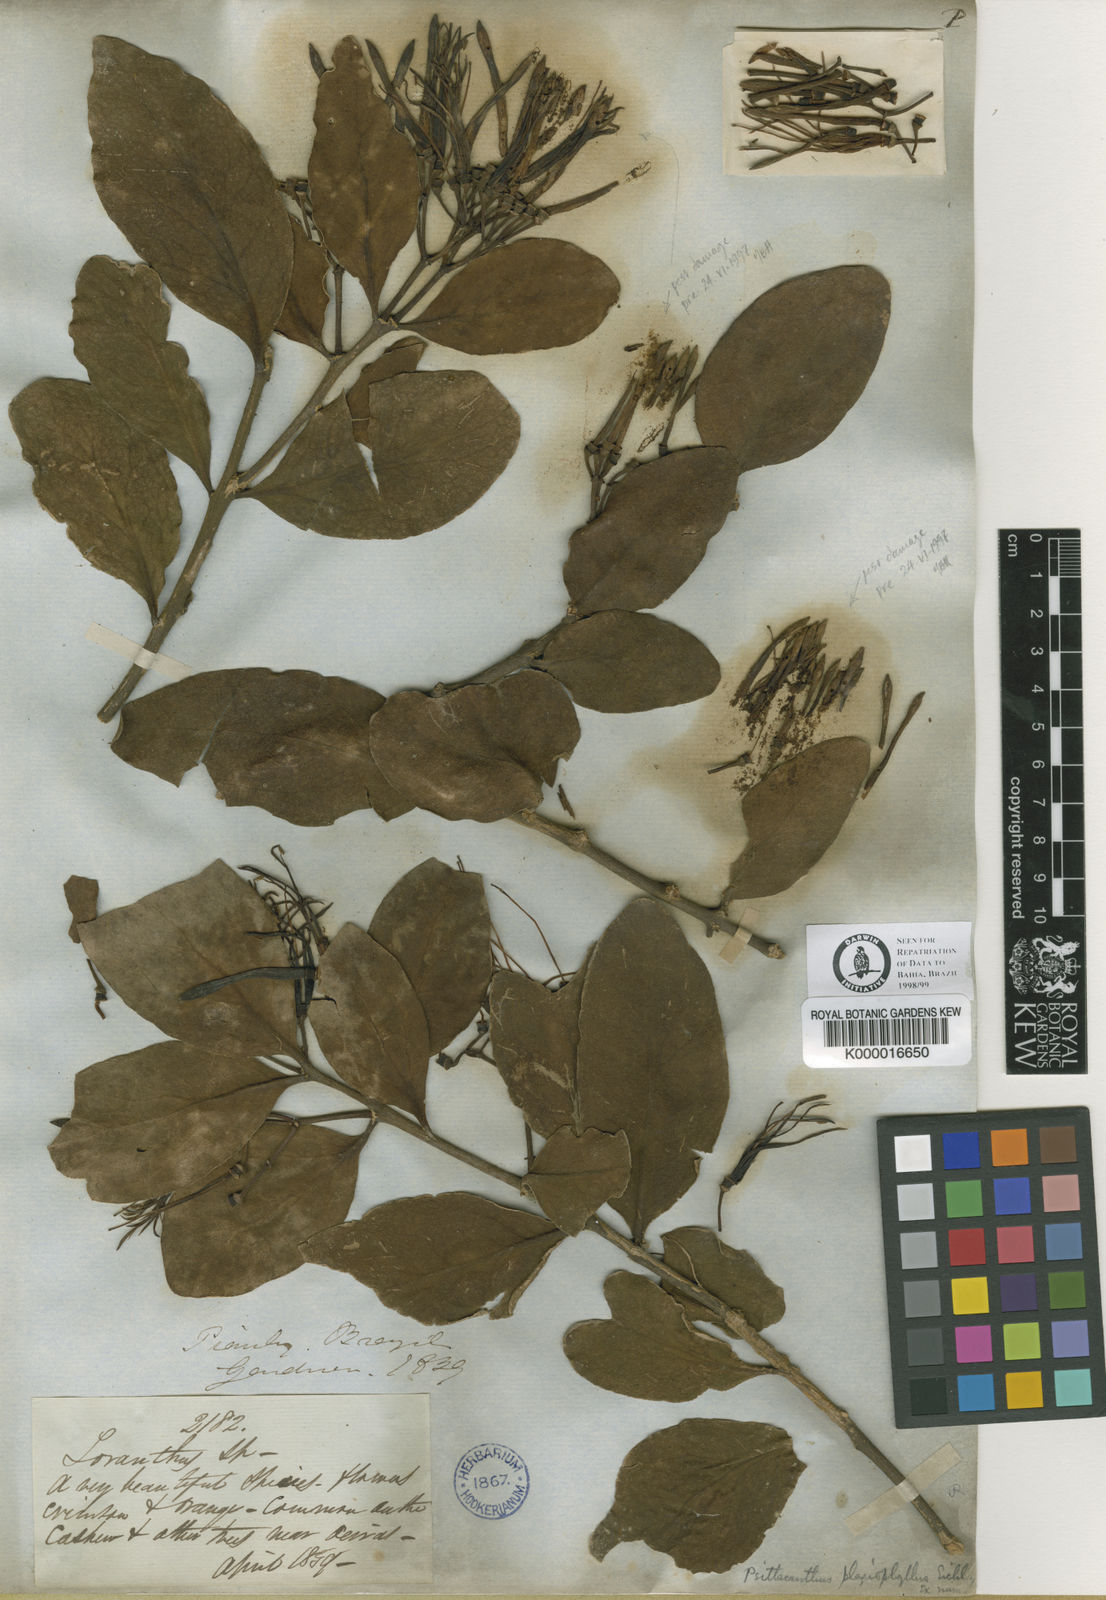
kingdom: Plantae
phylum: Tracheophyta
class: Magnoliopsida
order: Santalales
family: Loranthaceae
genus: Psittacanthus
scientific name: Psittacanthus plagiophyllus
